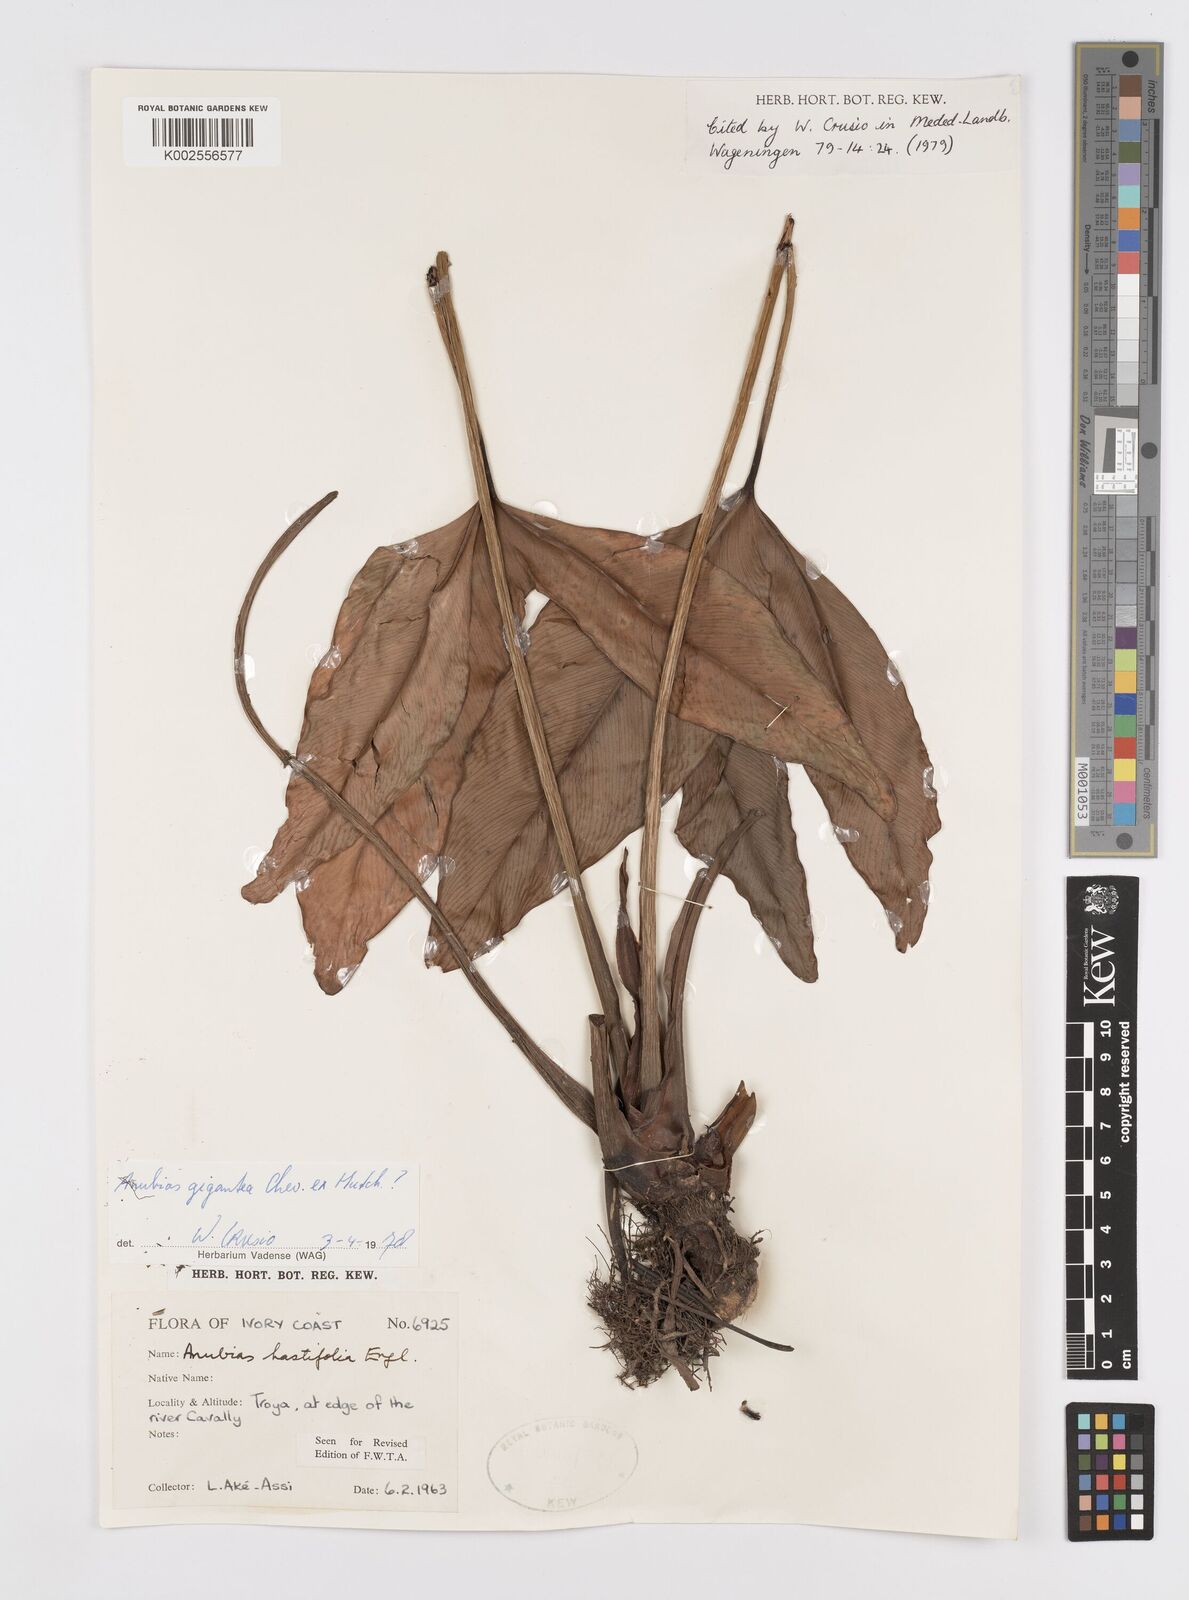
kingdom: Plantae
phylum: Tracheophyta
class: Liliopsida
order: Alismatales
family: Araceae
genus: Anubias
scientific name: Anubias gigantea
